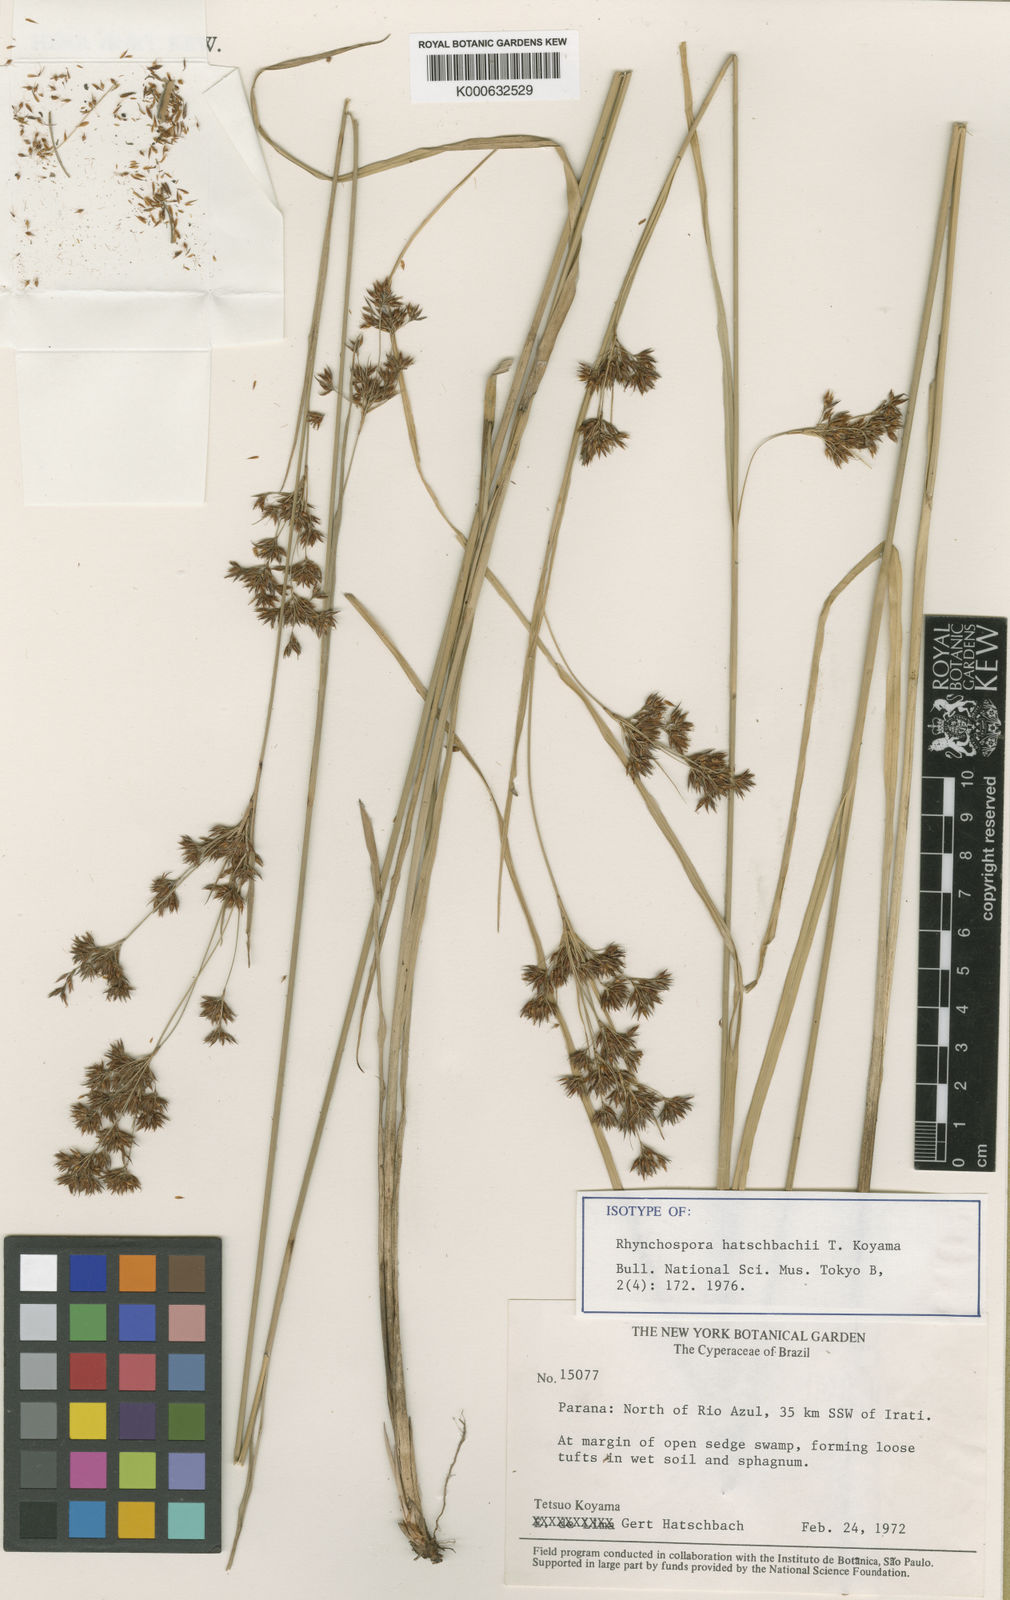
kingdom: Plantae
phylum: Tracheophyta
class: Liliopsida
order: Poales
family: Cyperaceae
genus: Rhynchospora
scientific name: Rhynchospora hatschbachii
